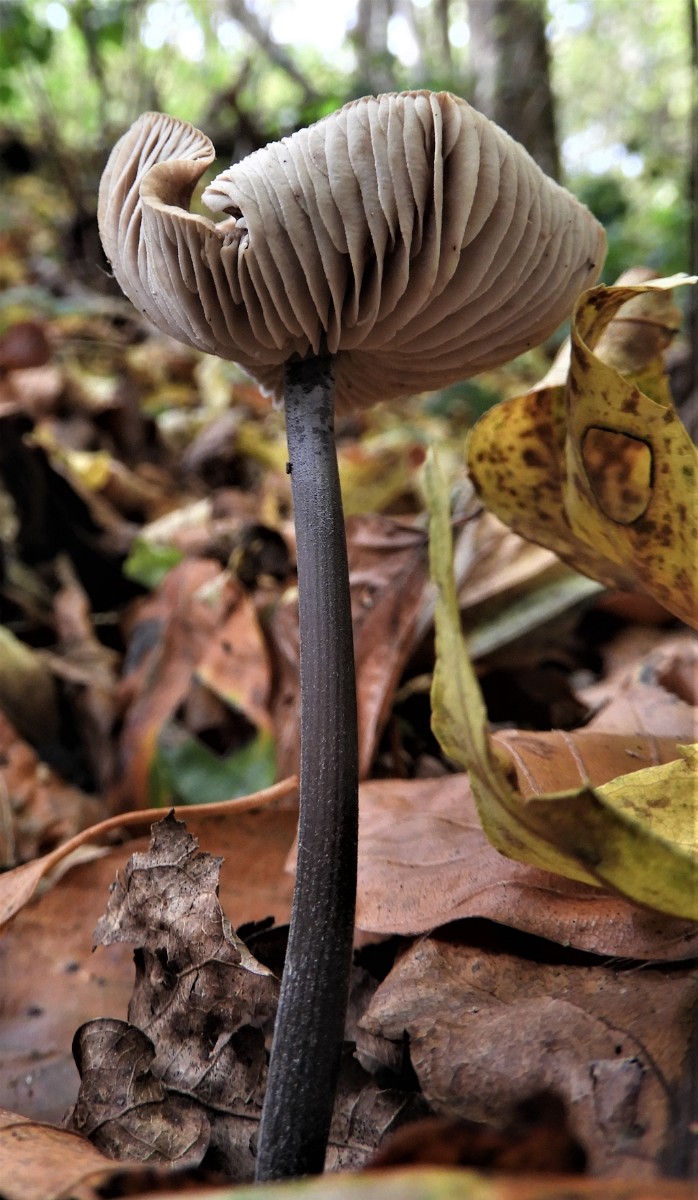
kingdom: Fungi
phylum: Basidiomycota
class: Agaricomycetes
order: Agaricales
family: Omphalotaceae
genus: Mycetinis
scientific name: Mycetinis alliaceus
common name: stor løghat
